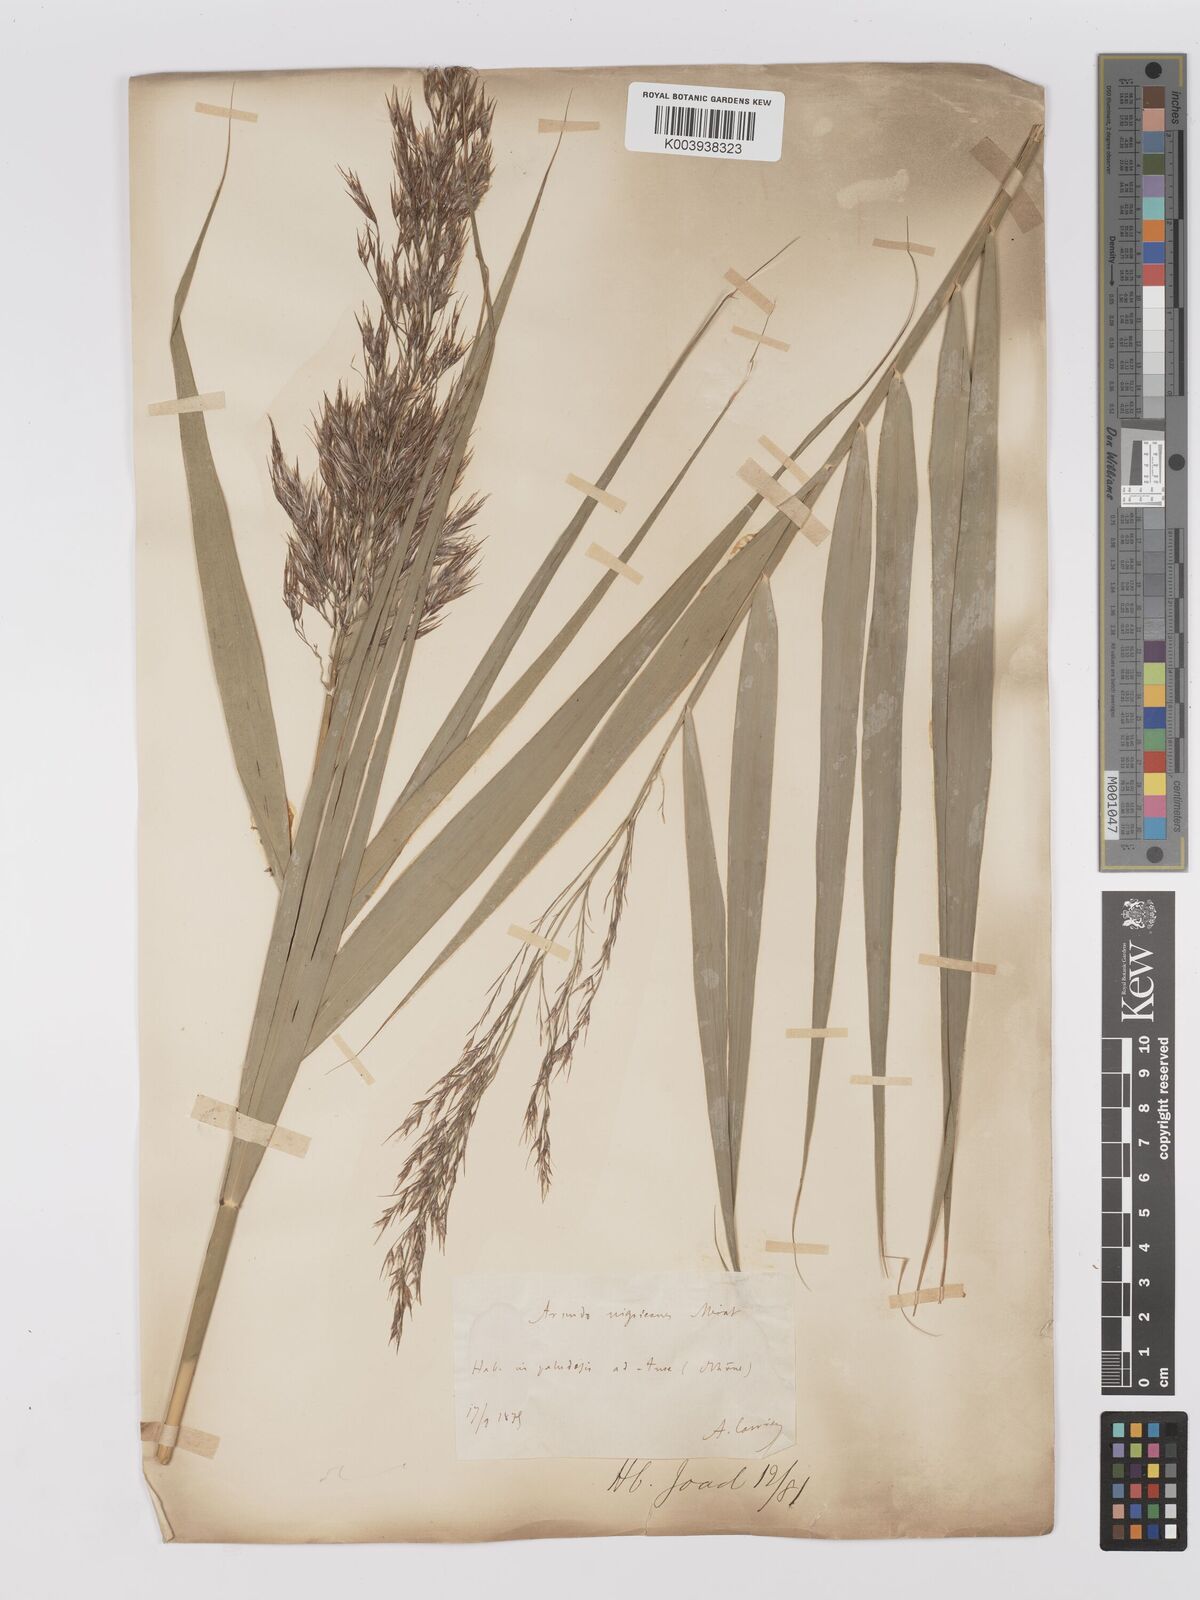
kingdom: Plantae
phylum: Tracheophyta
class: Liliopsida
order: Poales
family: Poaceae
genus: Phragmites
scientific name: Phragmites australis
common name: Common reed
